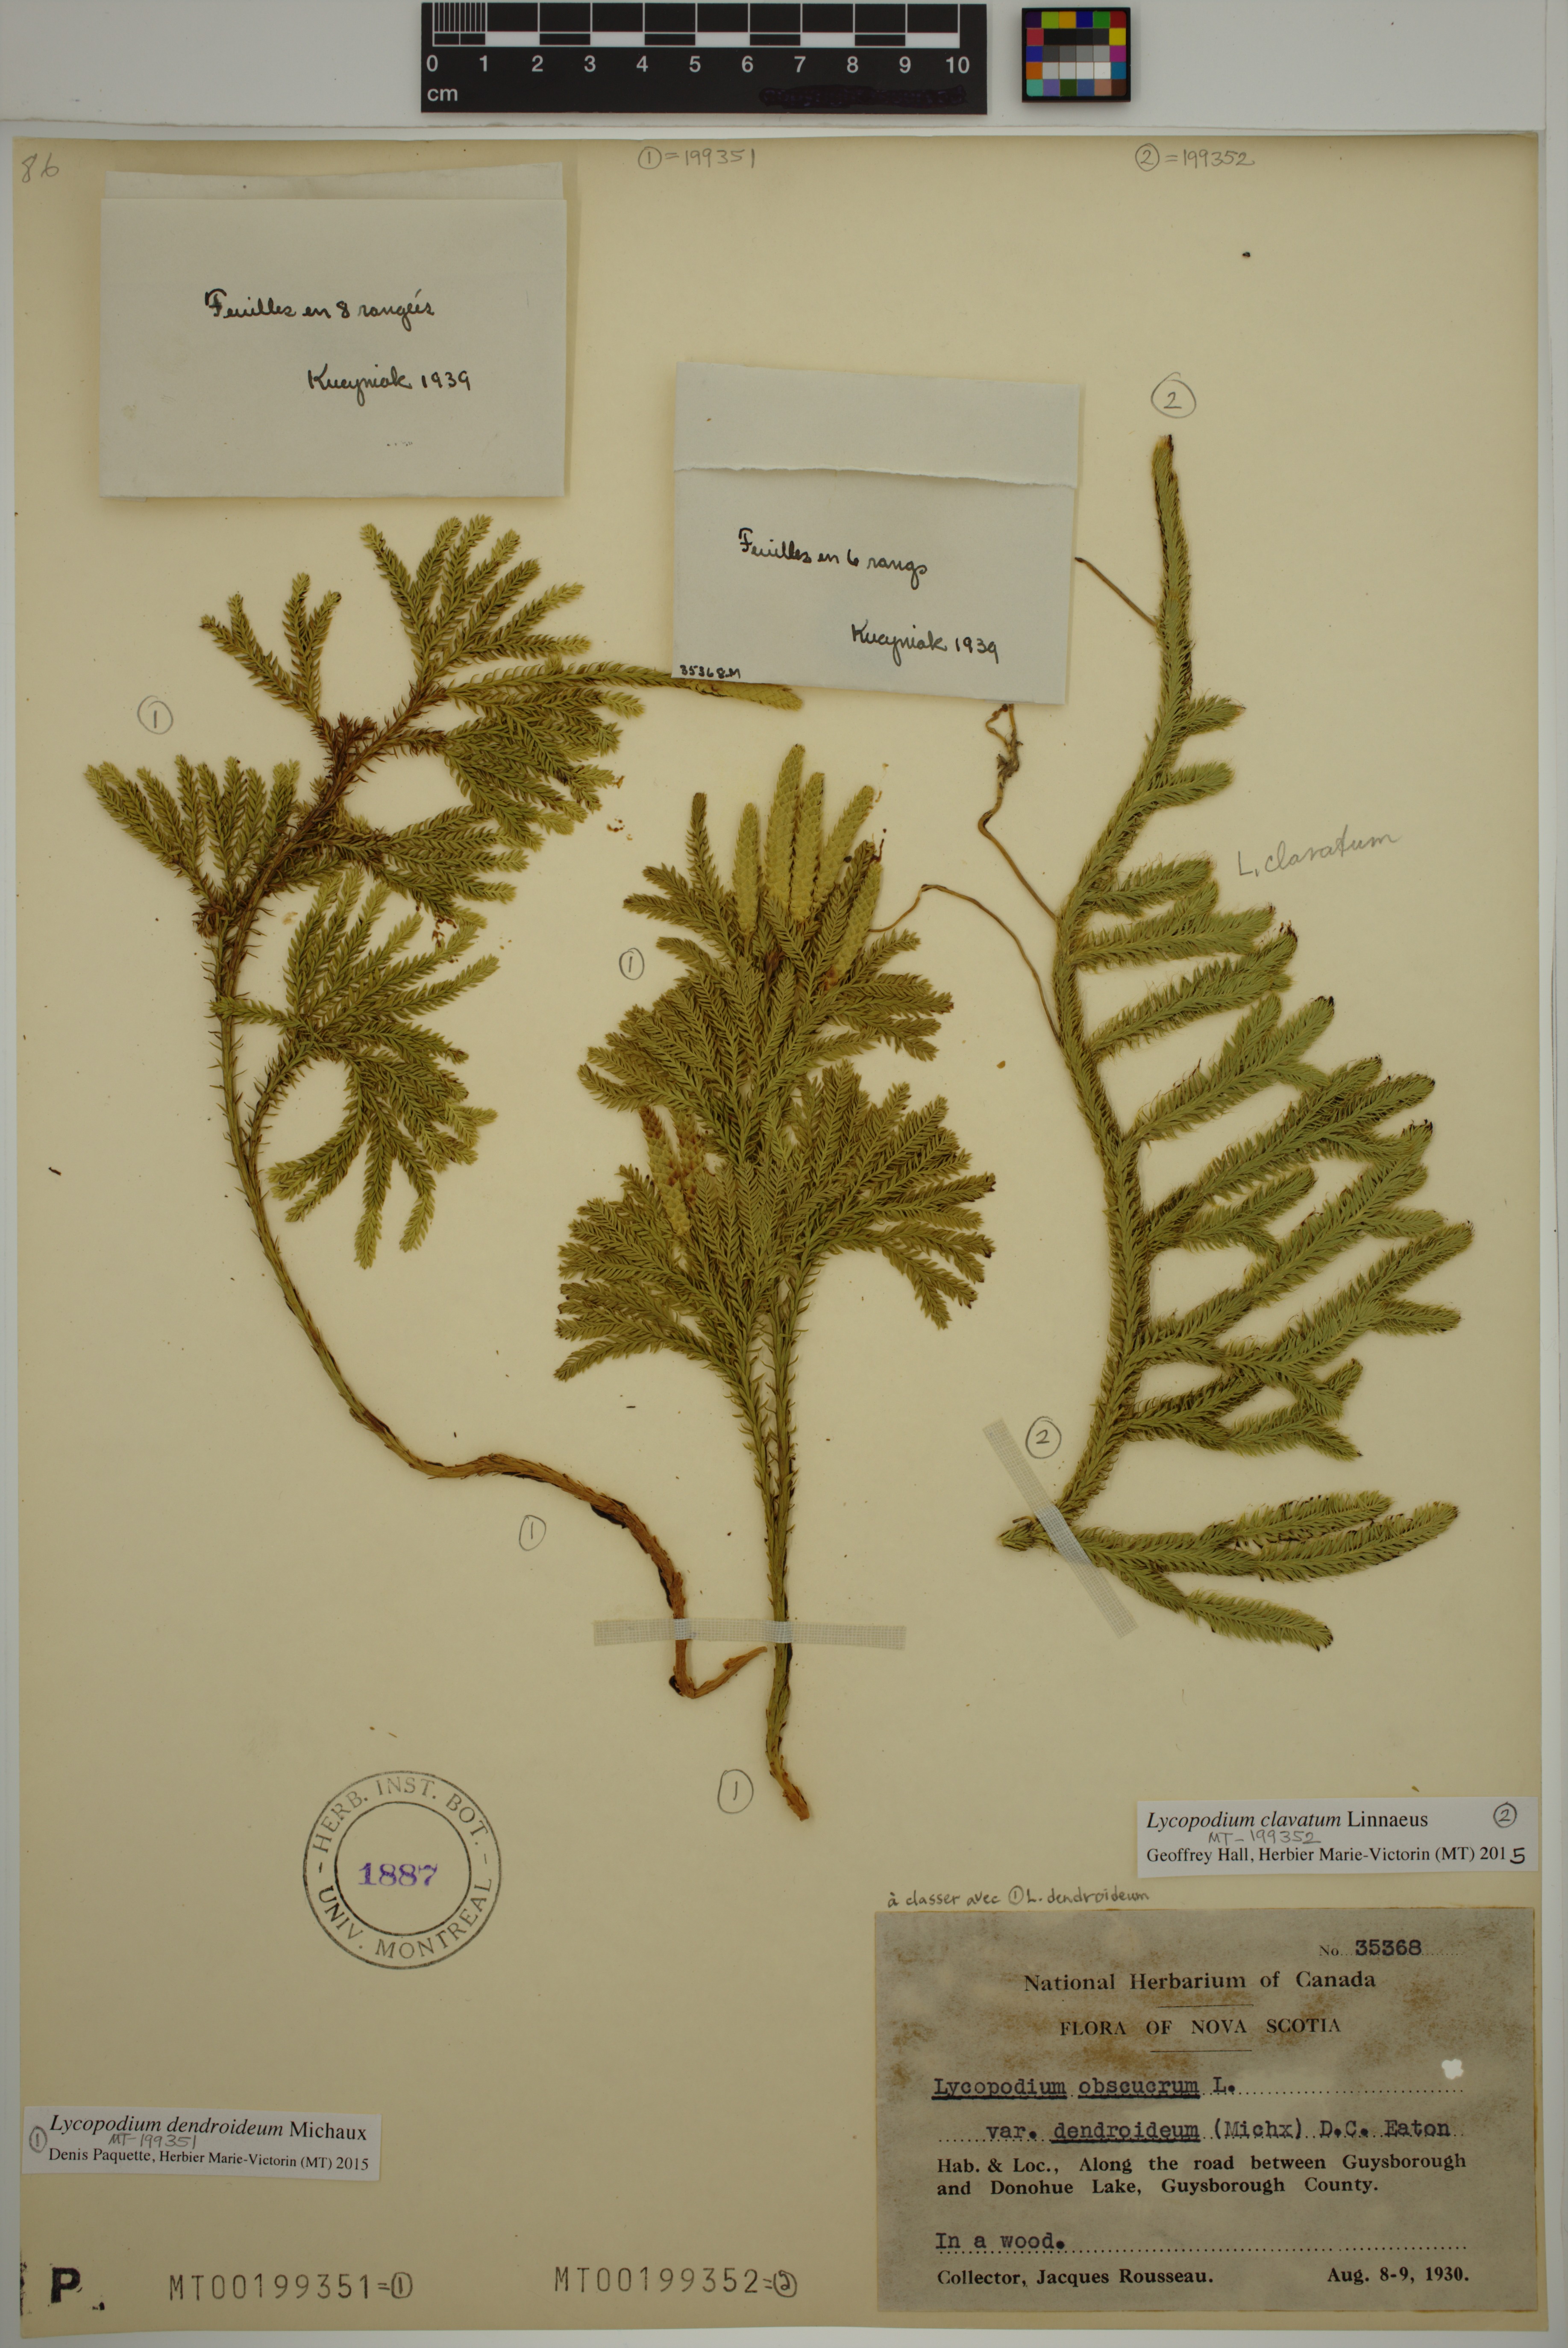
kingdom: Plantae
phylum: Tracheophyta
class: Lycopodiopsida
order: Lycopodiales
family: Lycopodiaceae
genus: Lycopodium
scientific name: Lycopodium clavatum
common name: Stag's-horn clubmoss
